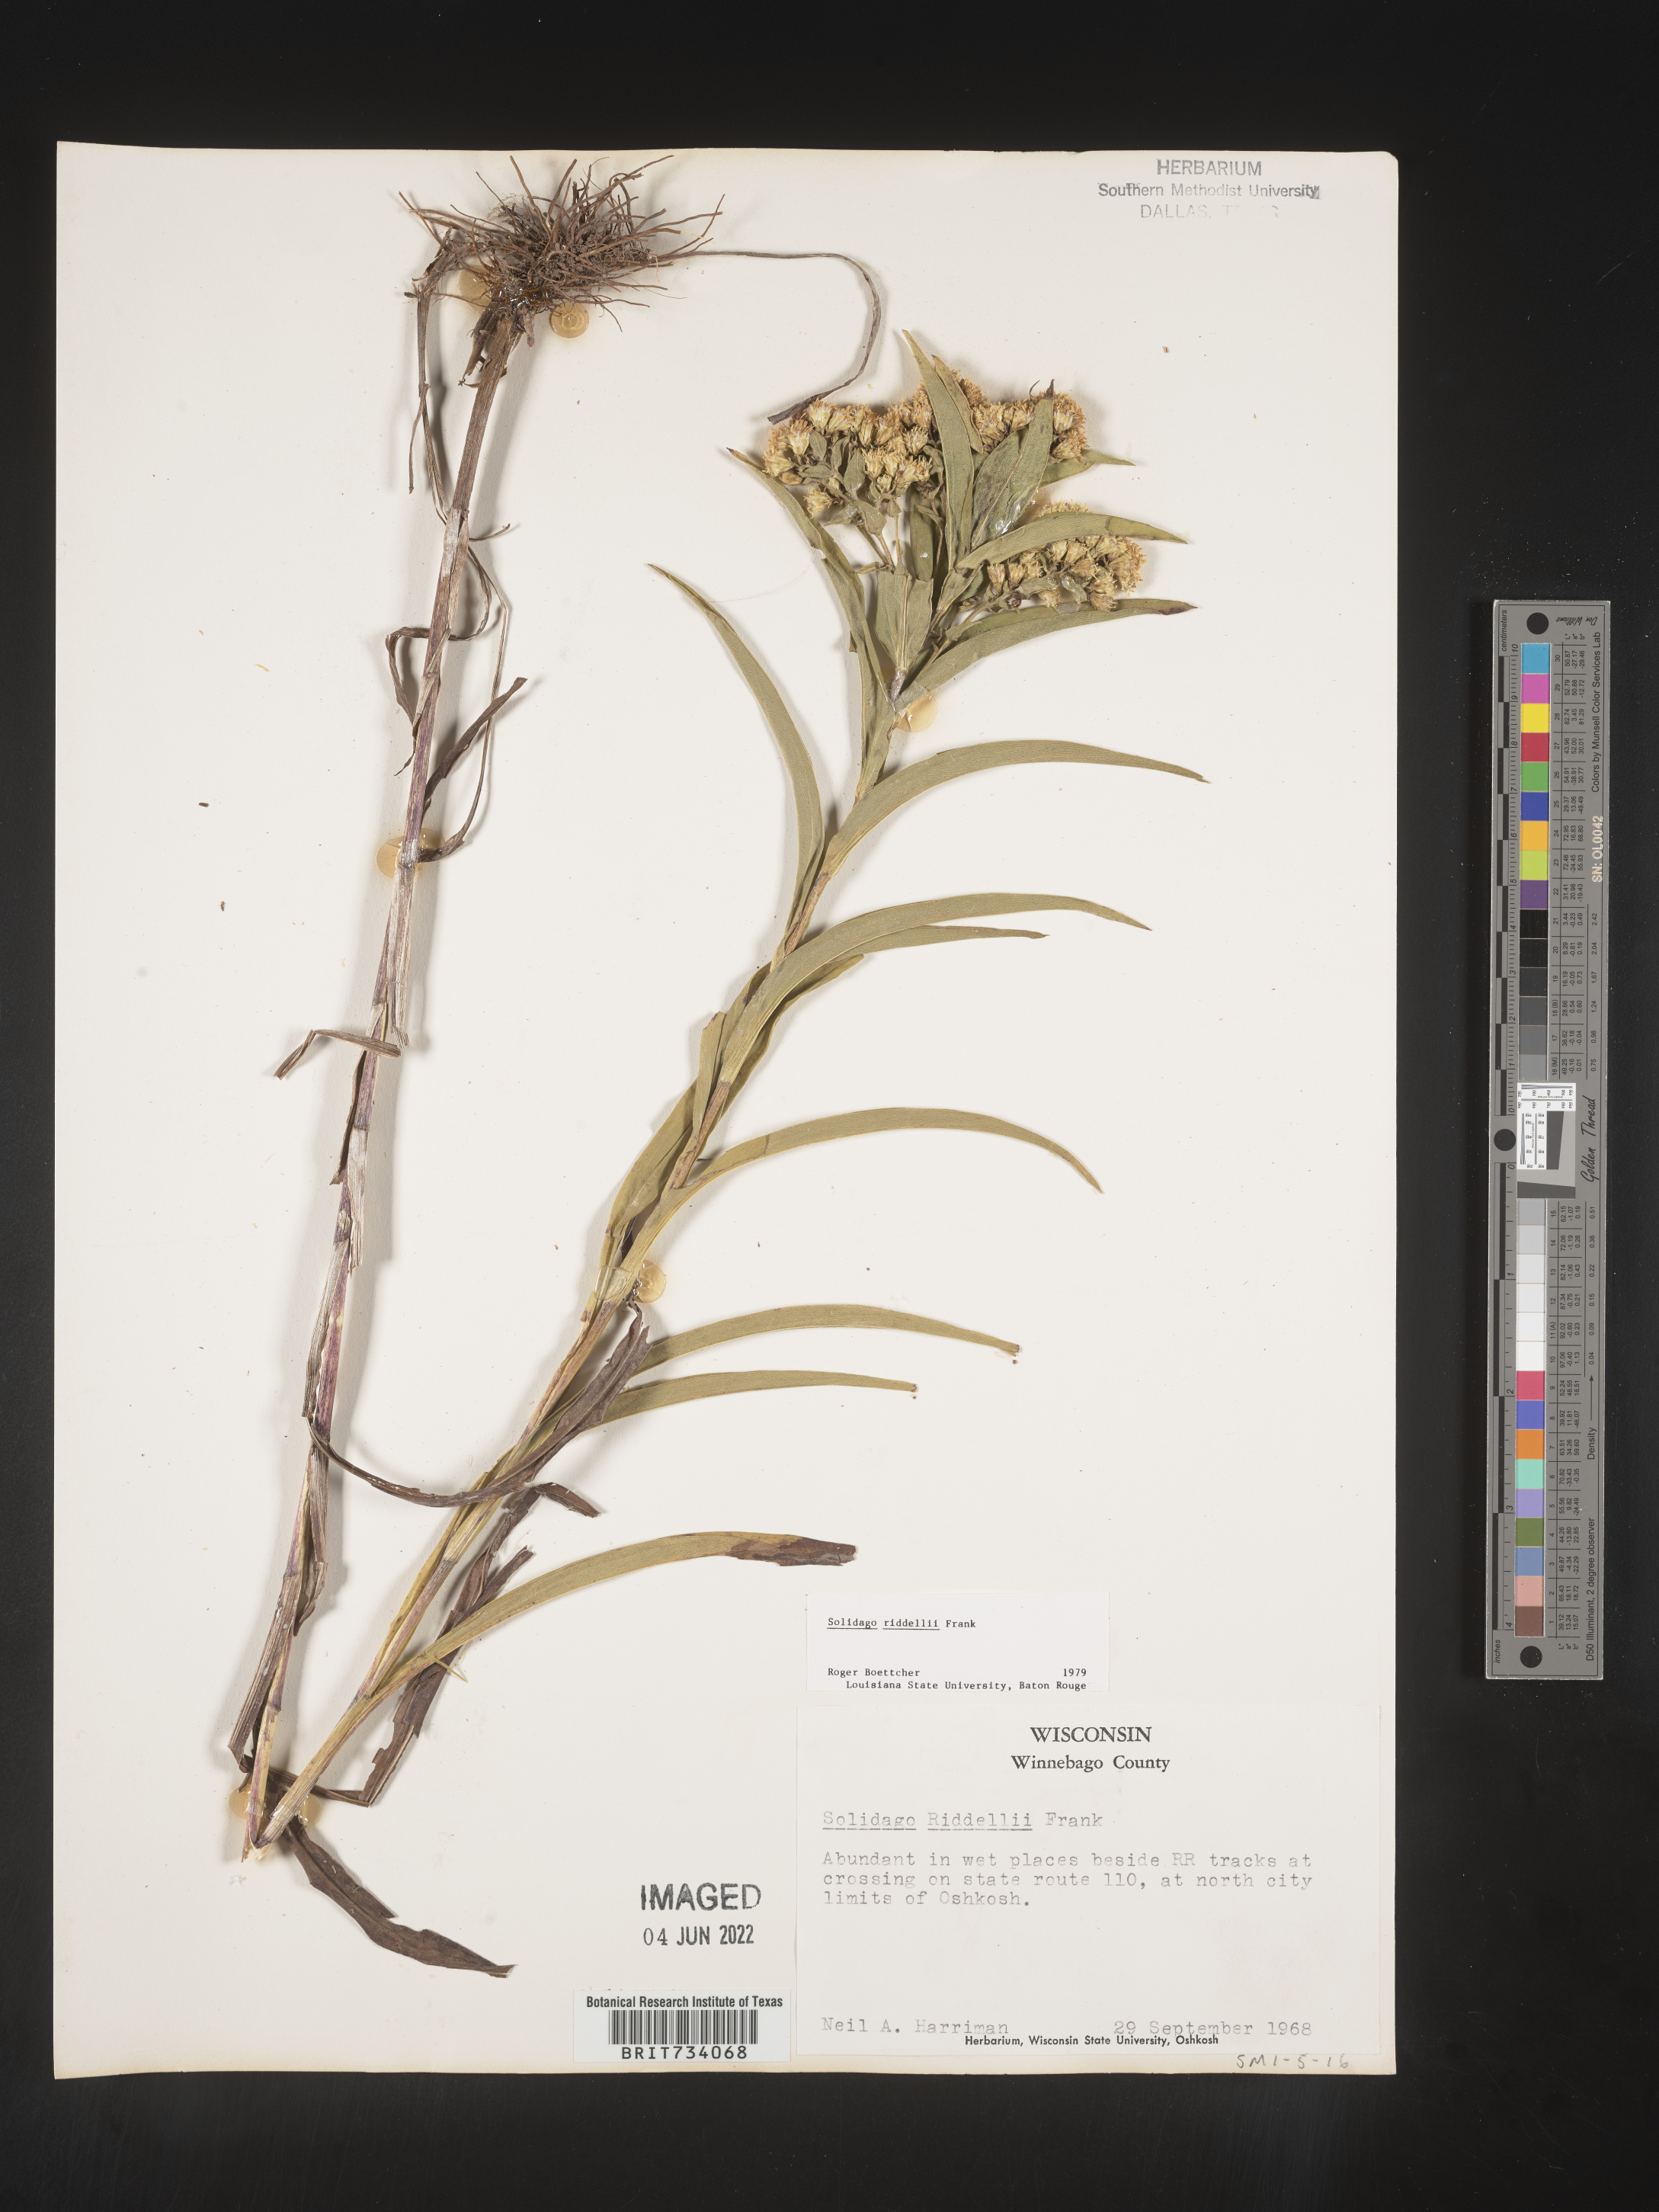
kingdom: Plantae
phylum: Tracheophyta
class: Magnoliopsida
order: Asterales
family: Asteraceae
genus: Solidago
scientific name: Solidago riddellii
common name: Riddell's goldenrod
